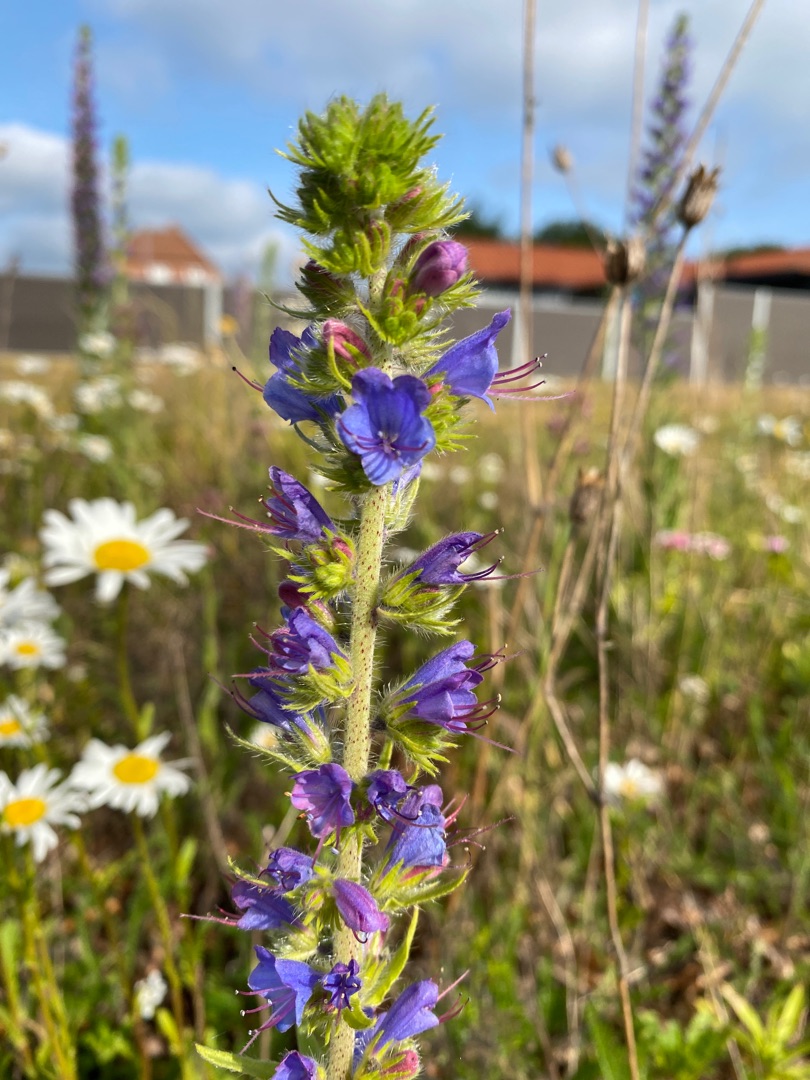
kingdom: Plantae
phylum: Tracheophyta
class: Magnoliopsida
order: Boraginales
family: Boraginaceae
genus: Echium
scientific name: Echium vulgare
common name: Slangehoved
